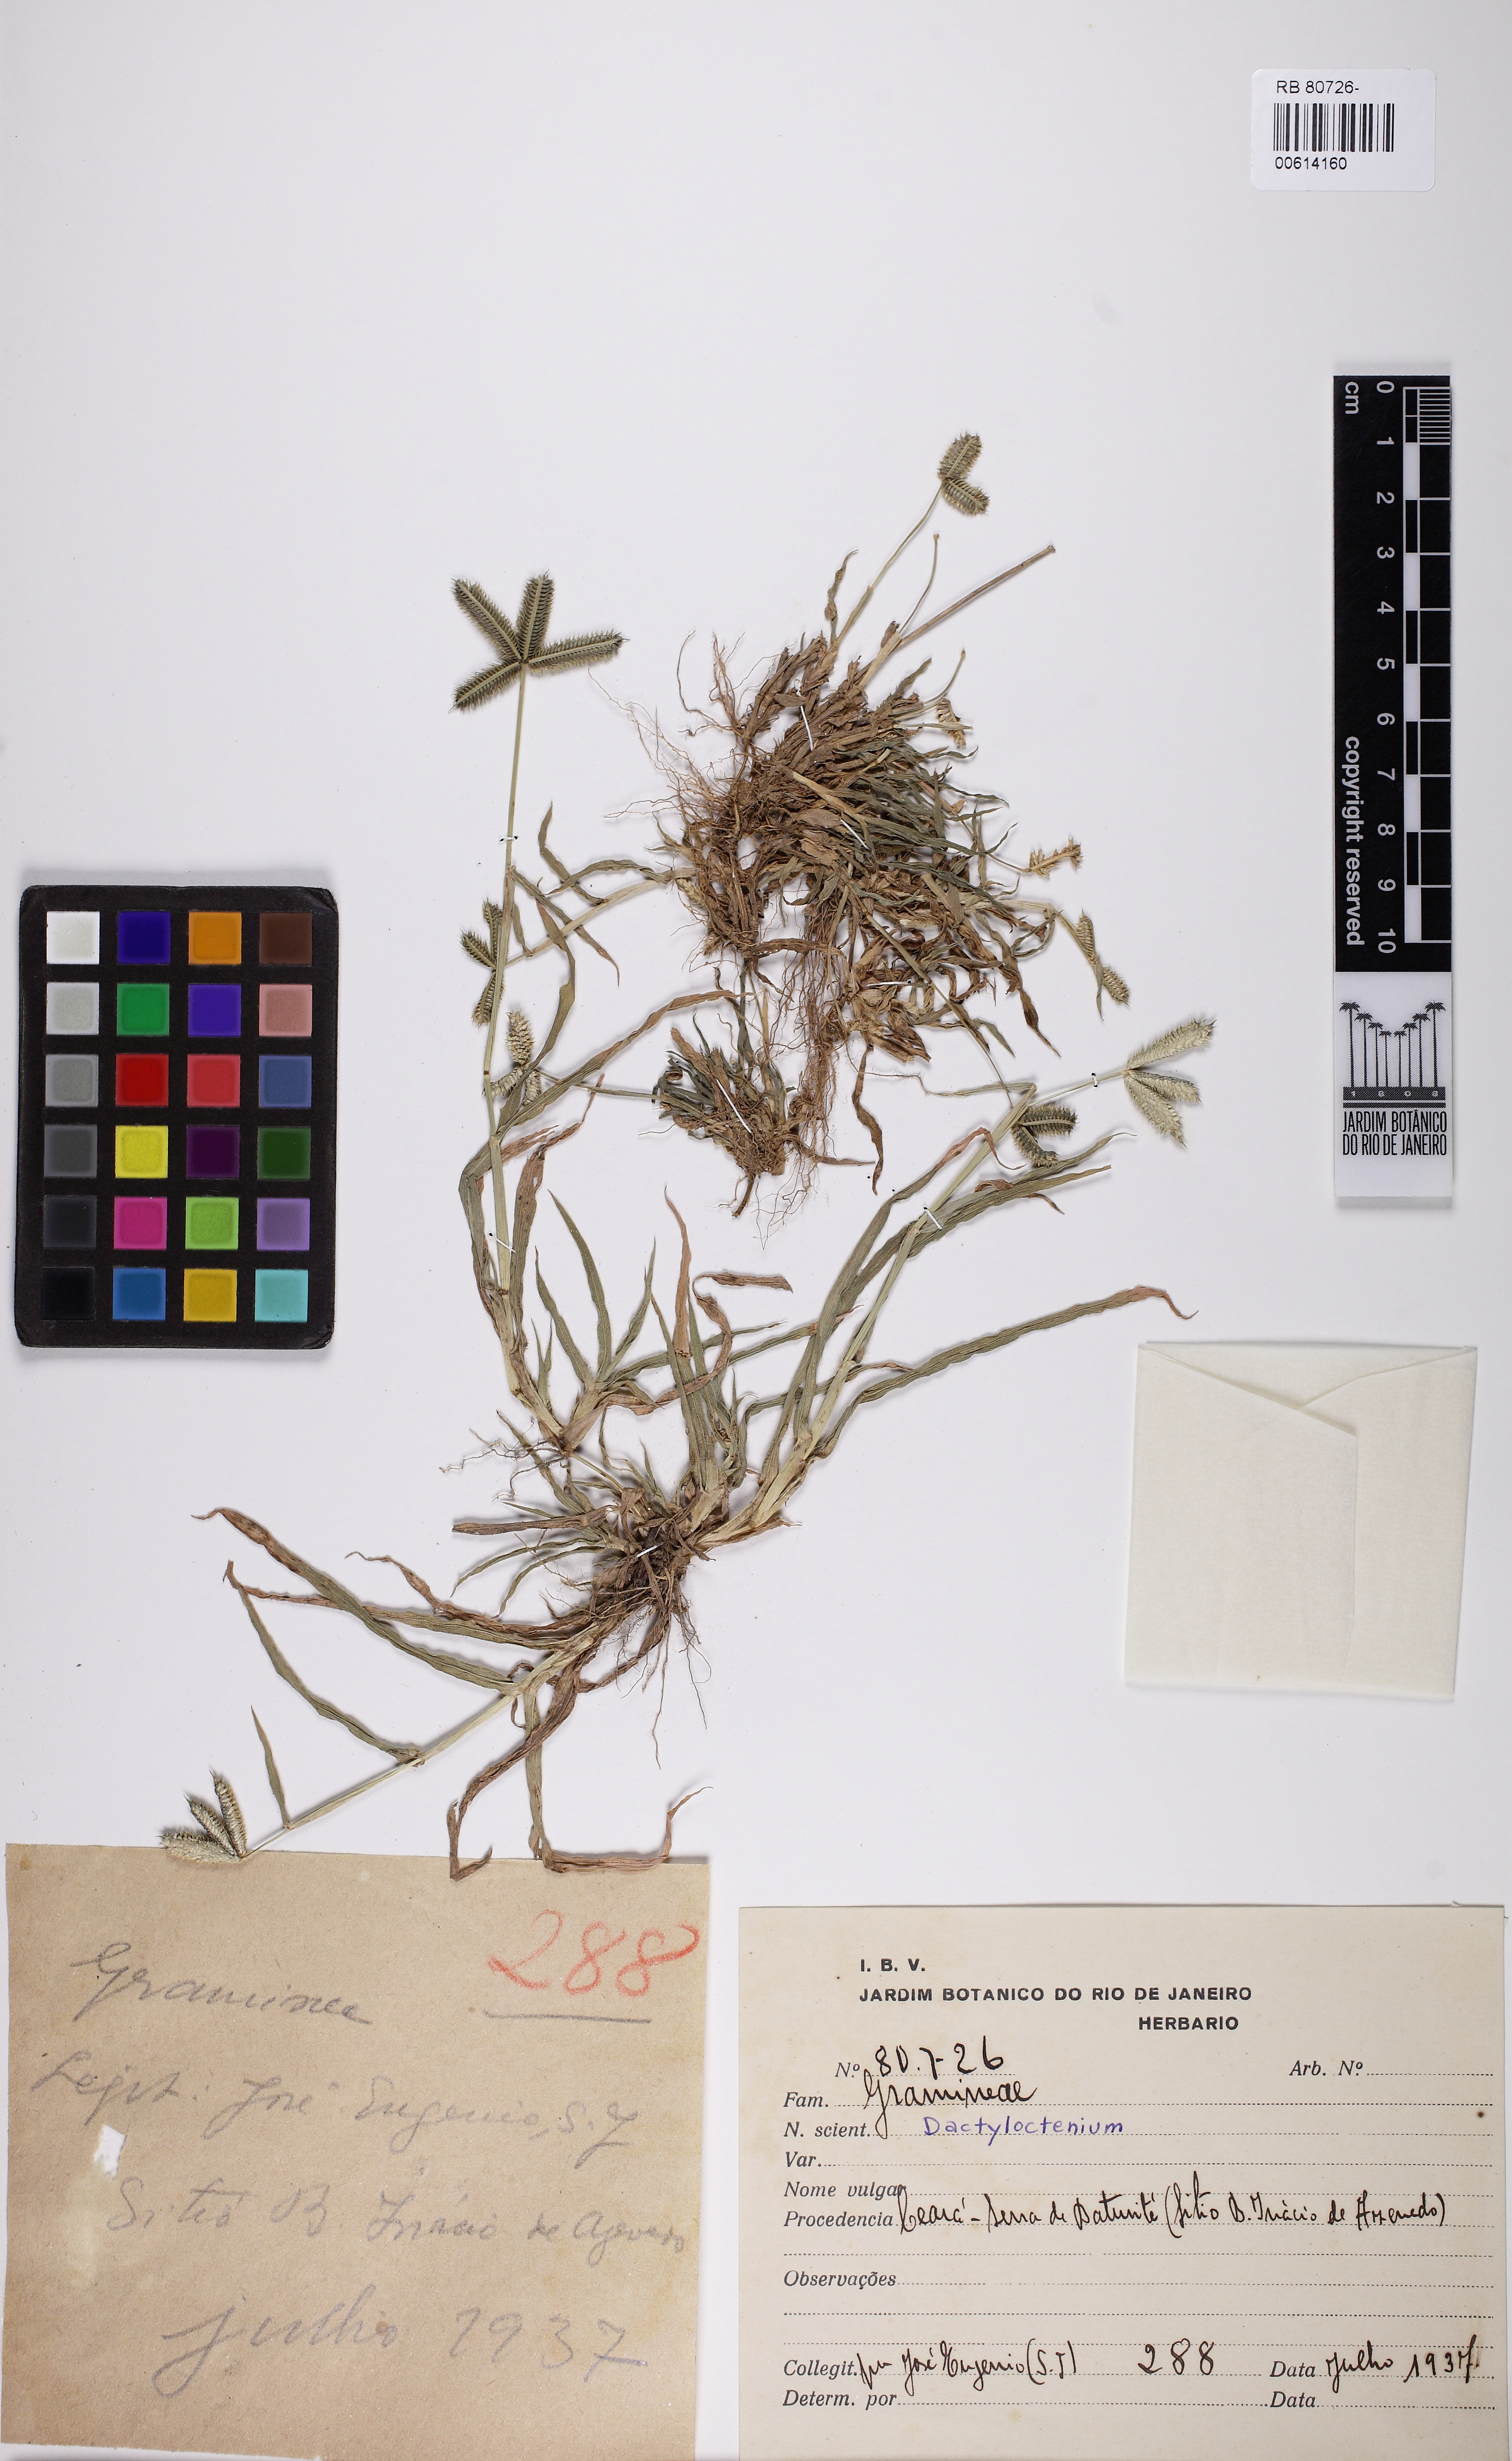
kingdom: Plantae
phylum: Tracheophyta
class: Liliopsida
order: Poales
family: Poaceae
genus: Dactyloctenium
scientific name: Dactyloctenium
